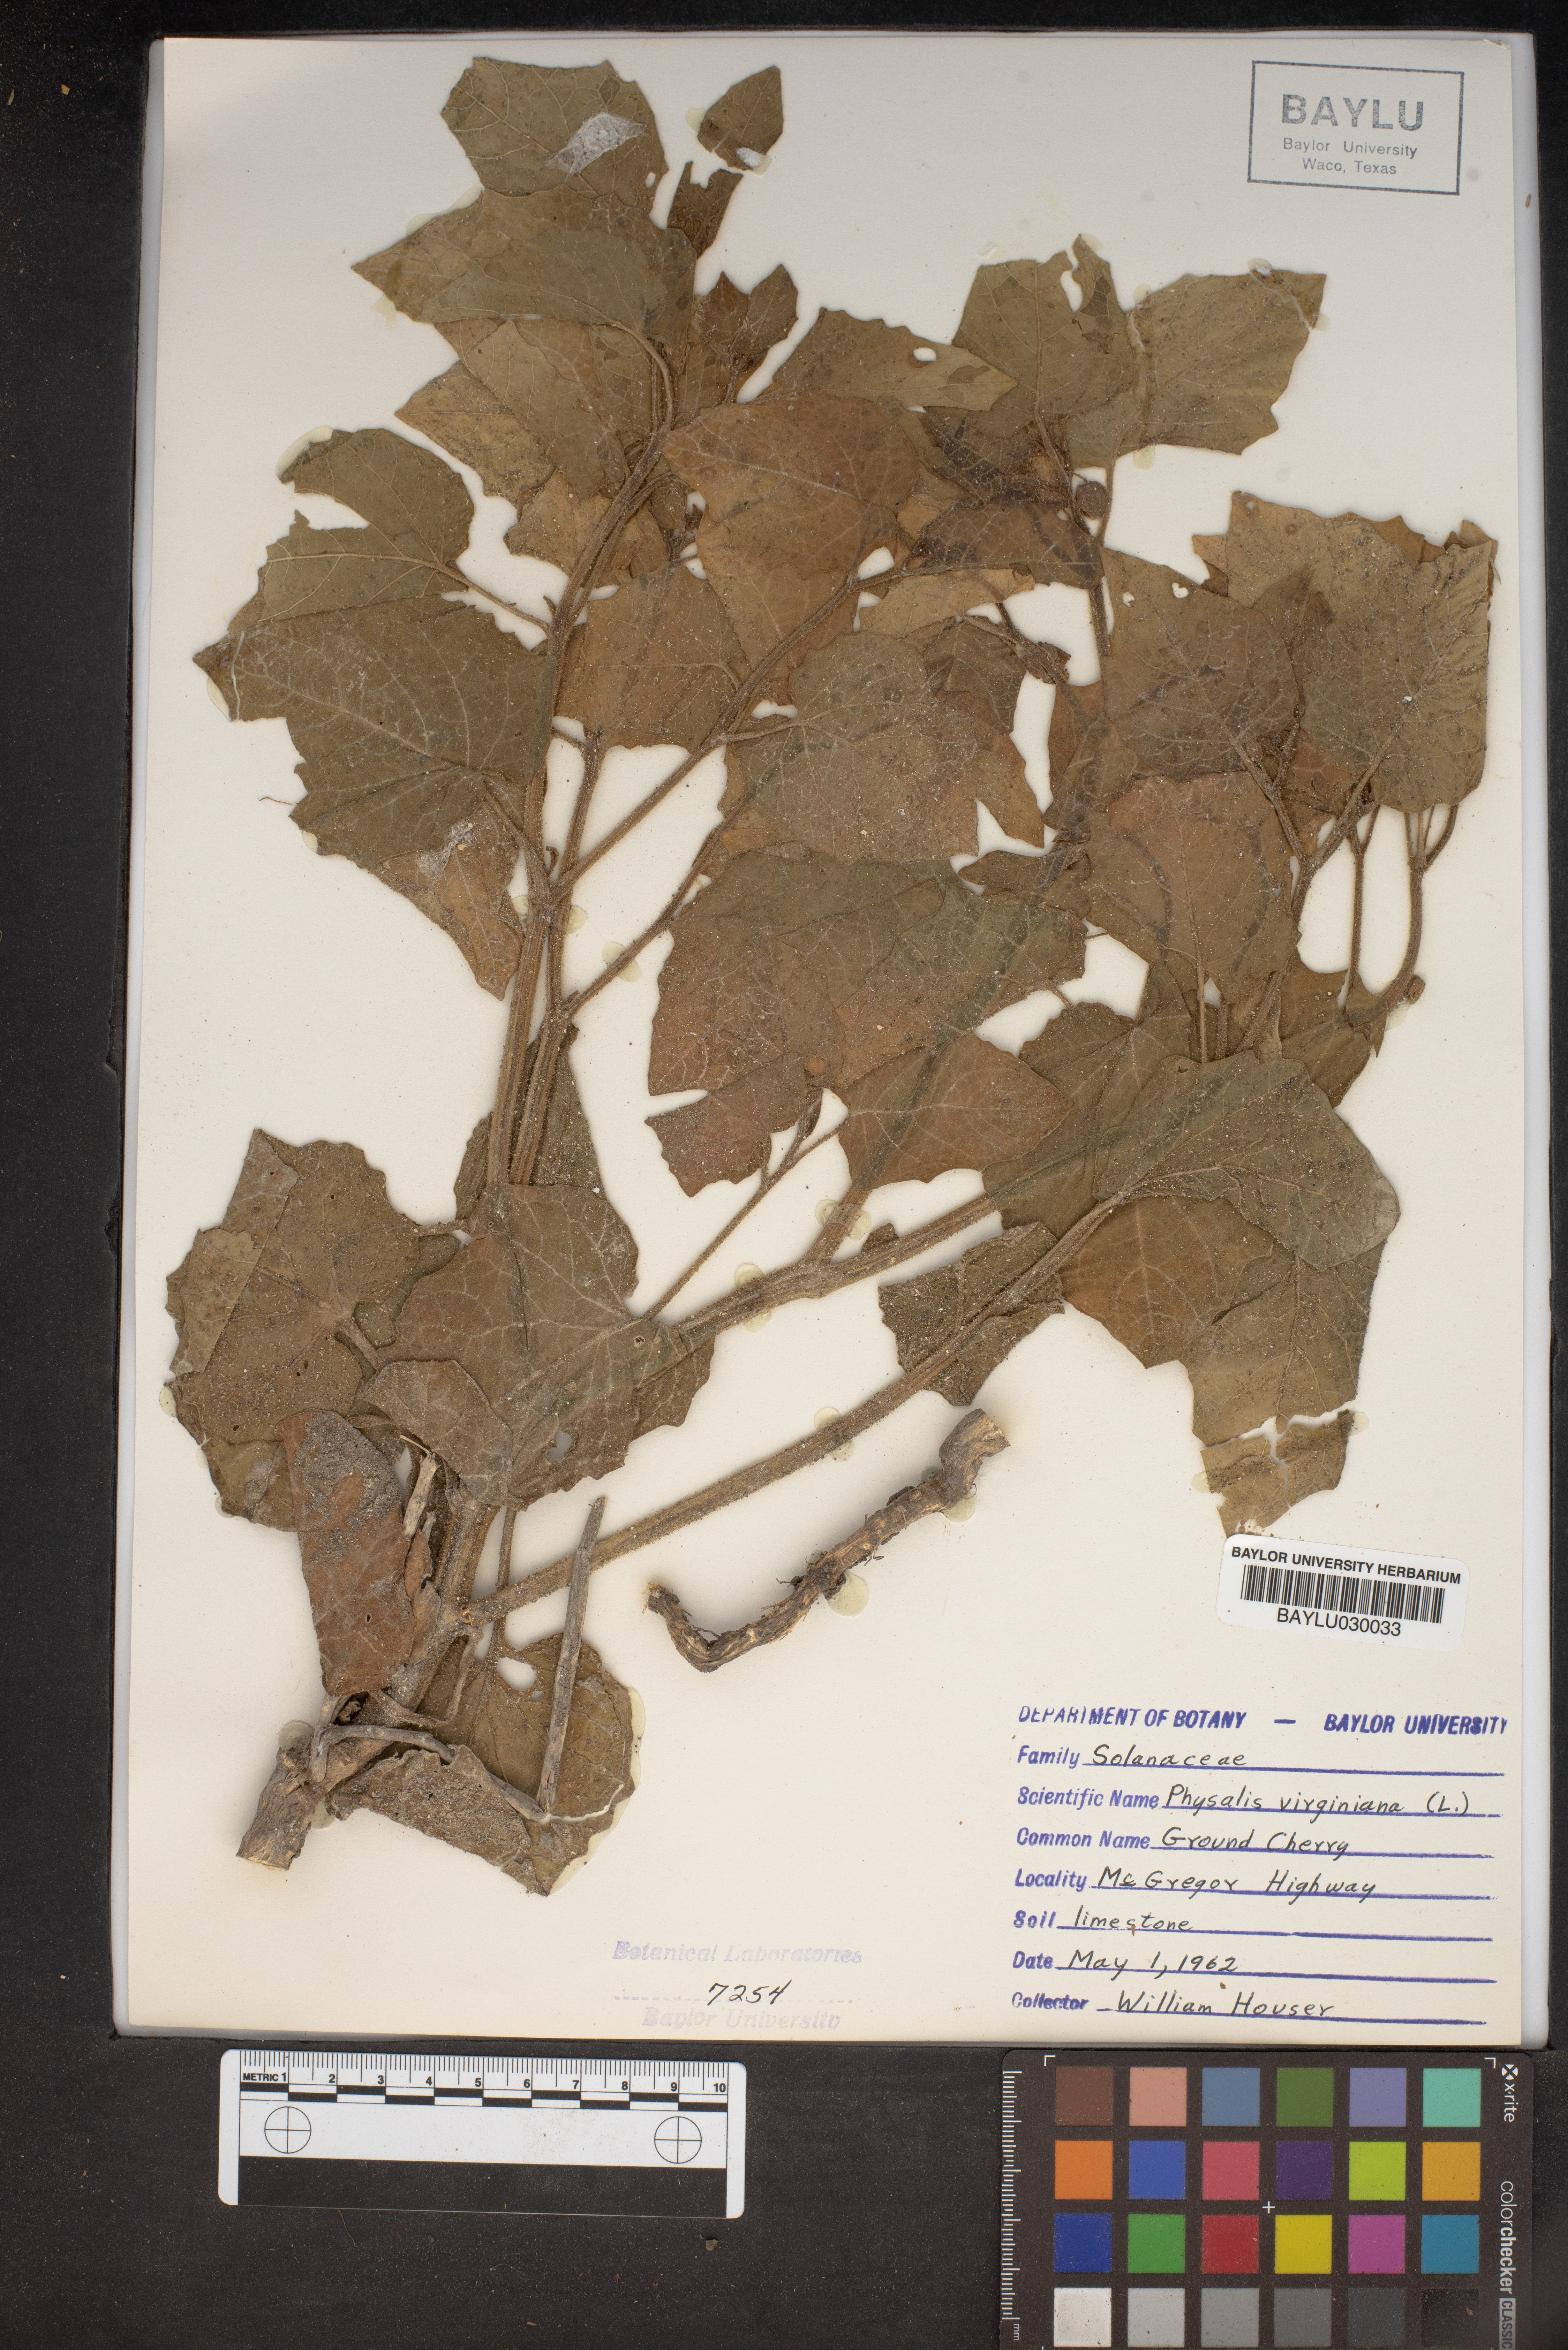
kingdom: Plantae
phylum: Tracheophyta
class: Magnoliopsida
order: Solanales
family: Solanaceae
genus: Physalis
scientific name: Physalis virginiana
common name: Virginia ground-cherry
